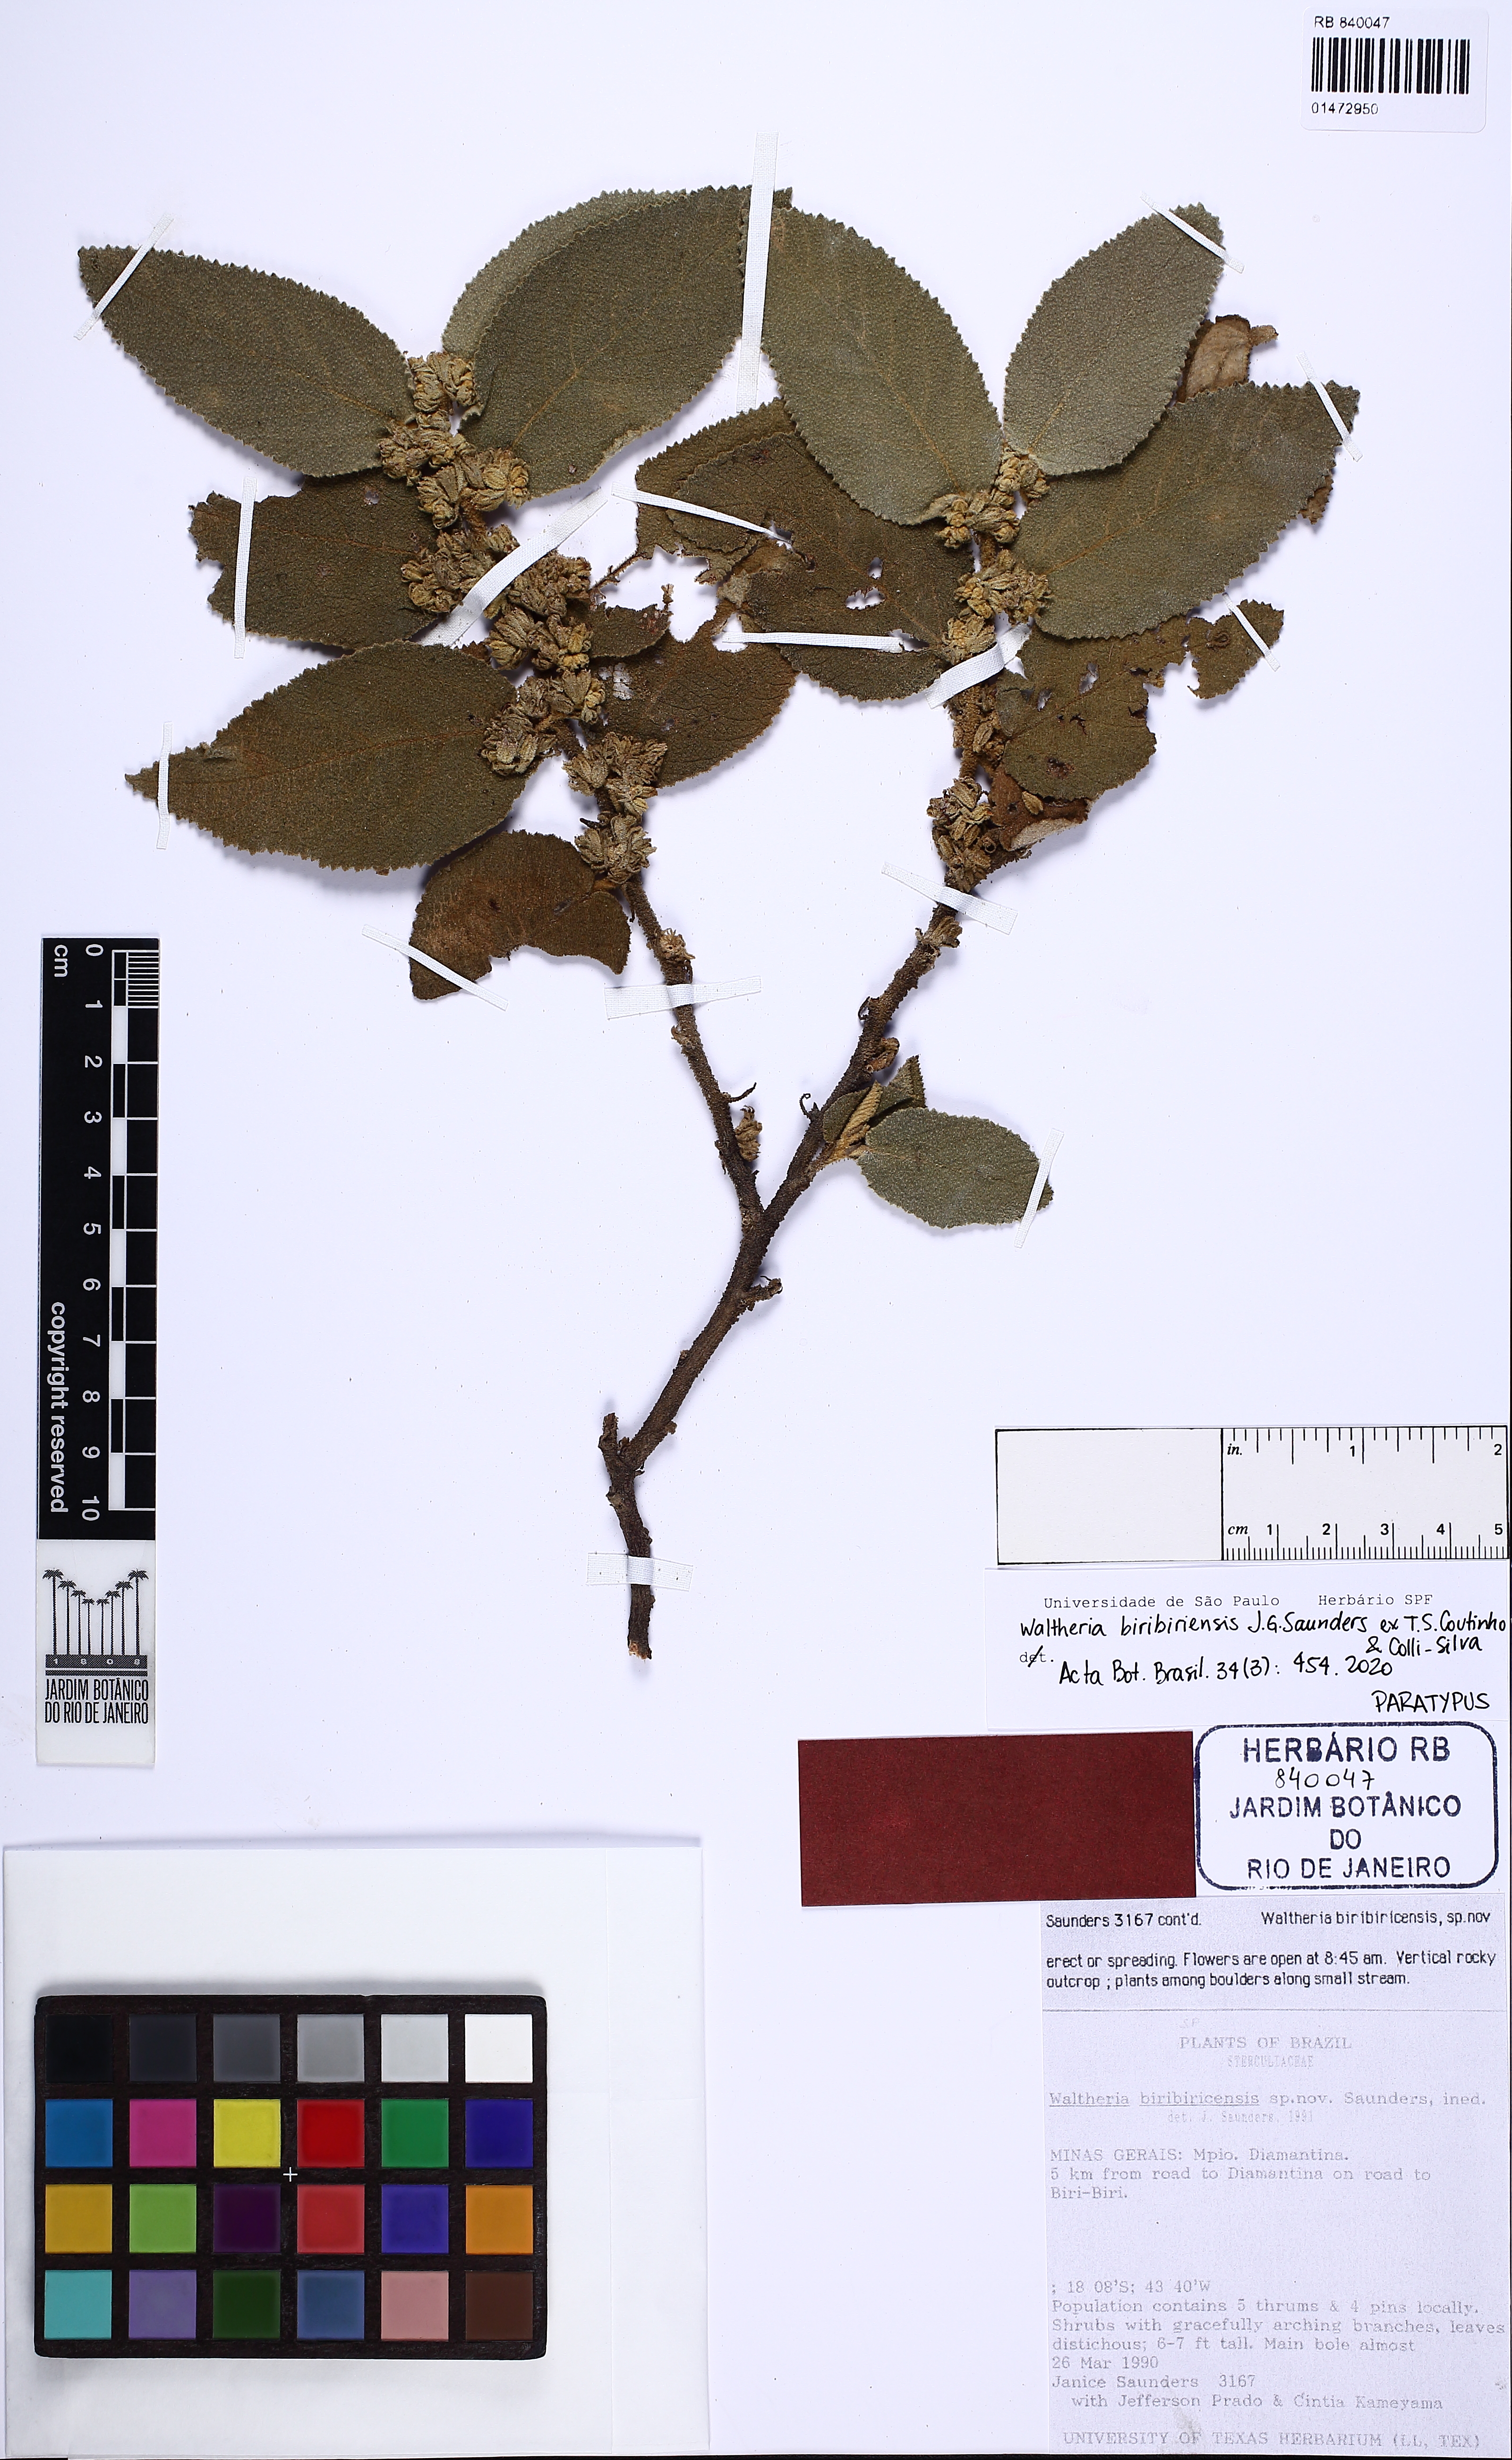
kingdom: Plantae
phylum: Tracheophyta
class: Magnoliopsida
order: Malvales
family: Malvaceae
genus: Waltheria
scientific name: Waltheria biribiriensis
